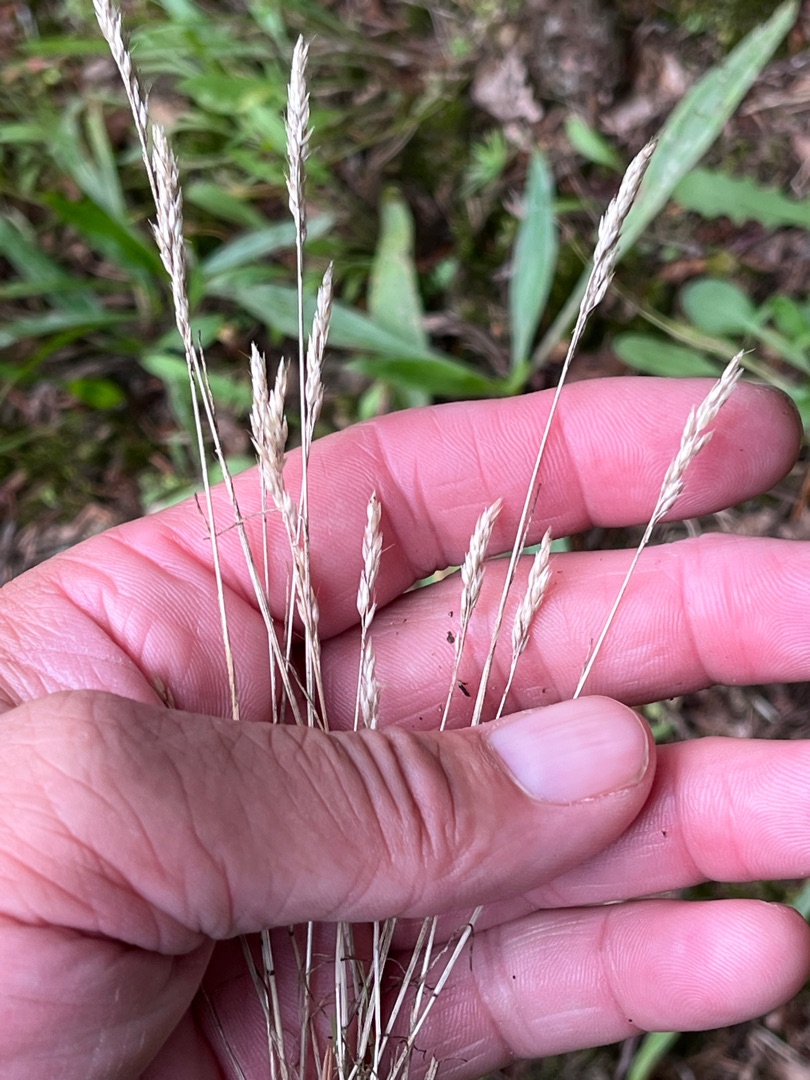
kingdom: Plantae
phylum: Tracheophyta
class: Liliopsida
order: Poales
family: Poaceae
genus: Aira
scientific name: Aira praecox
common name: Tidlig dværgbunke
